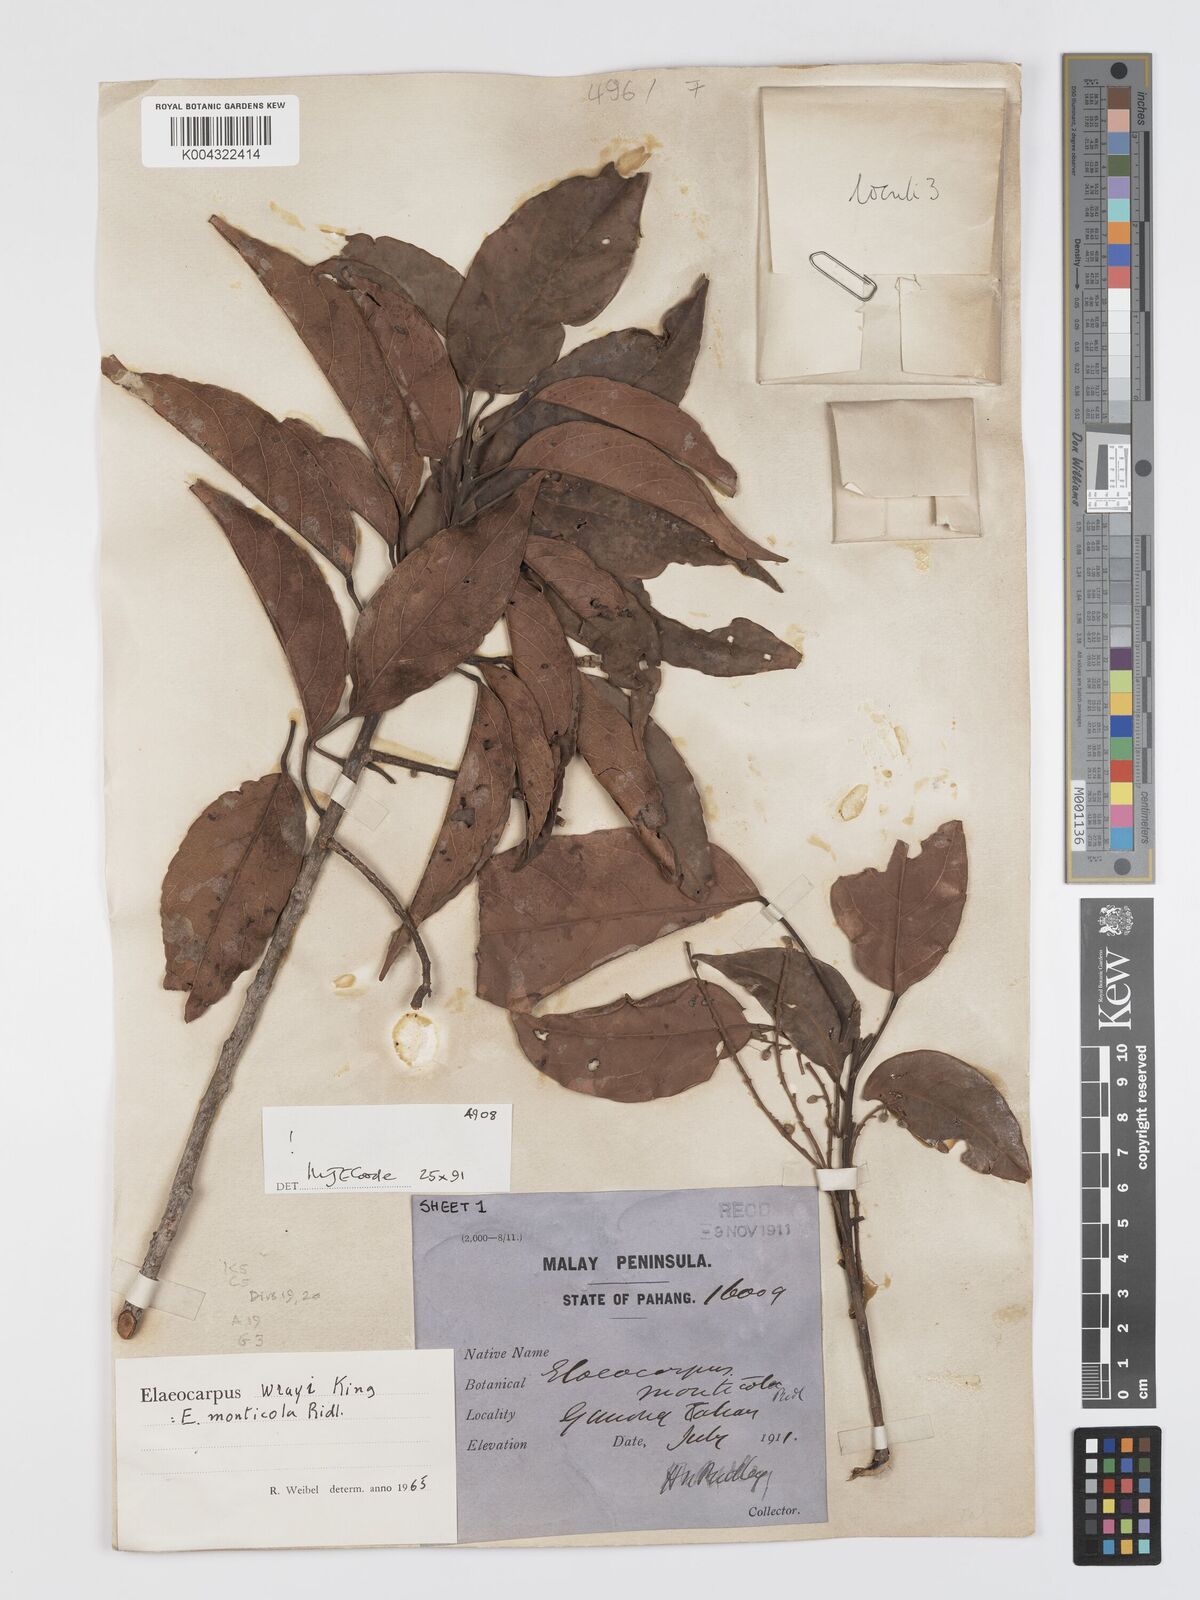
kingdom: Plantae
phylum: Tracheophyta
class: Magnoliopsida
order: Oxalidales
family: Elaeocarpaceae
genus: Elaeocarpus
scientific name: Elaeocarpus nitidus
